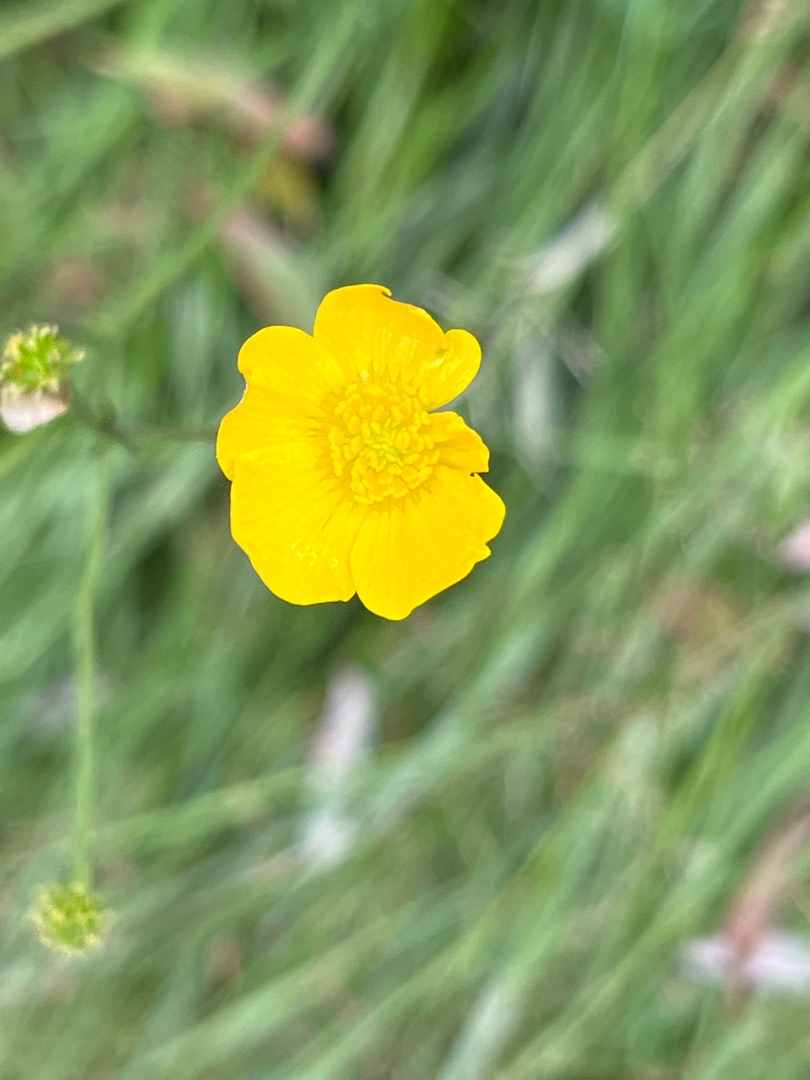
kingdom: Plantae
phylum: Tracheophyta
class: Magnoliopsida
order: Ranunculales
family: Ranunculaceae
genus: Ranunculus
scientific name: Ranunculus
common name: Ranunkelslægten
